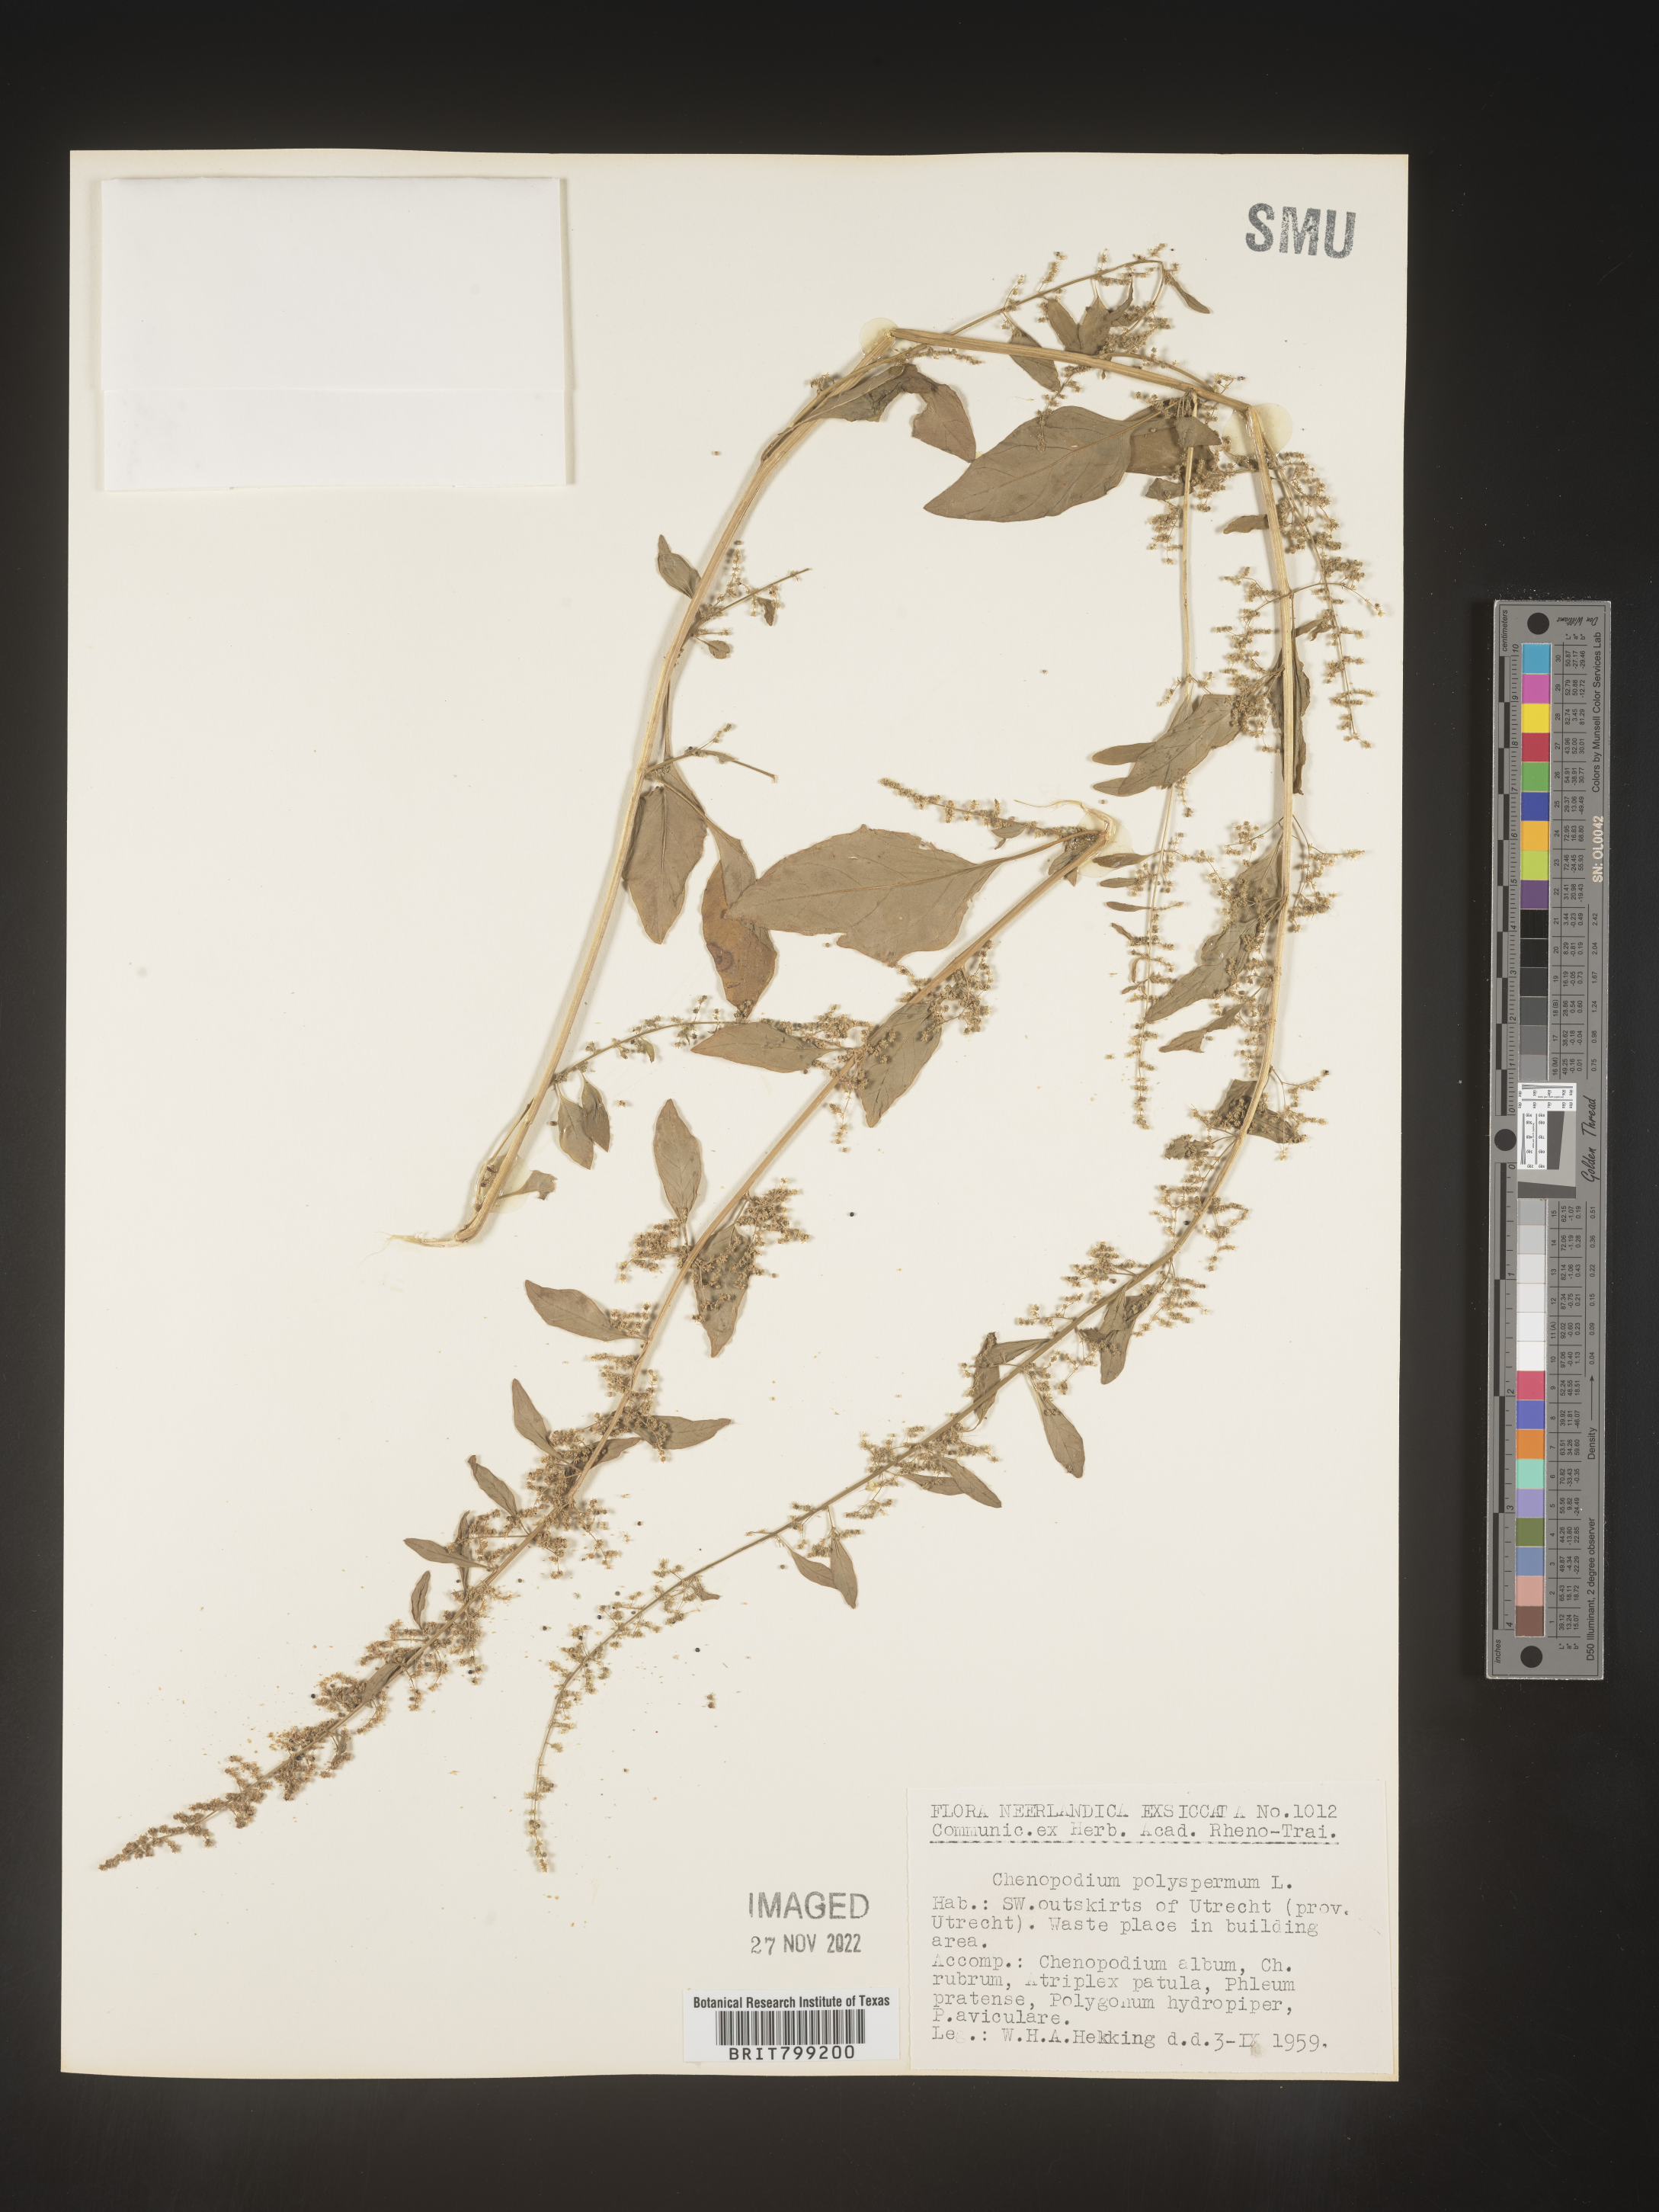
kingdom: Plantae
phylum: Tracheophyta
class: Magnoliopsida
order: Caryophyllales
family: Amaranthaceae
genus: Chenopodium
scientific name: Chenopodium
